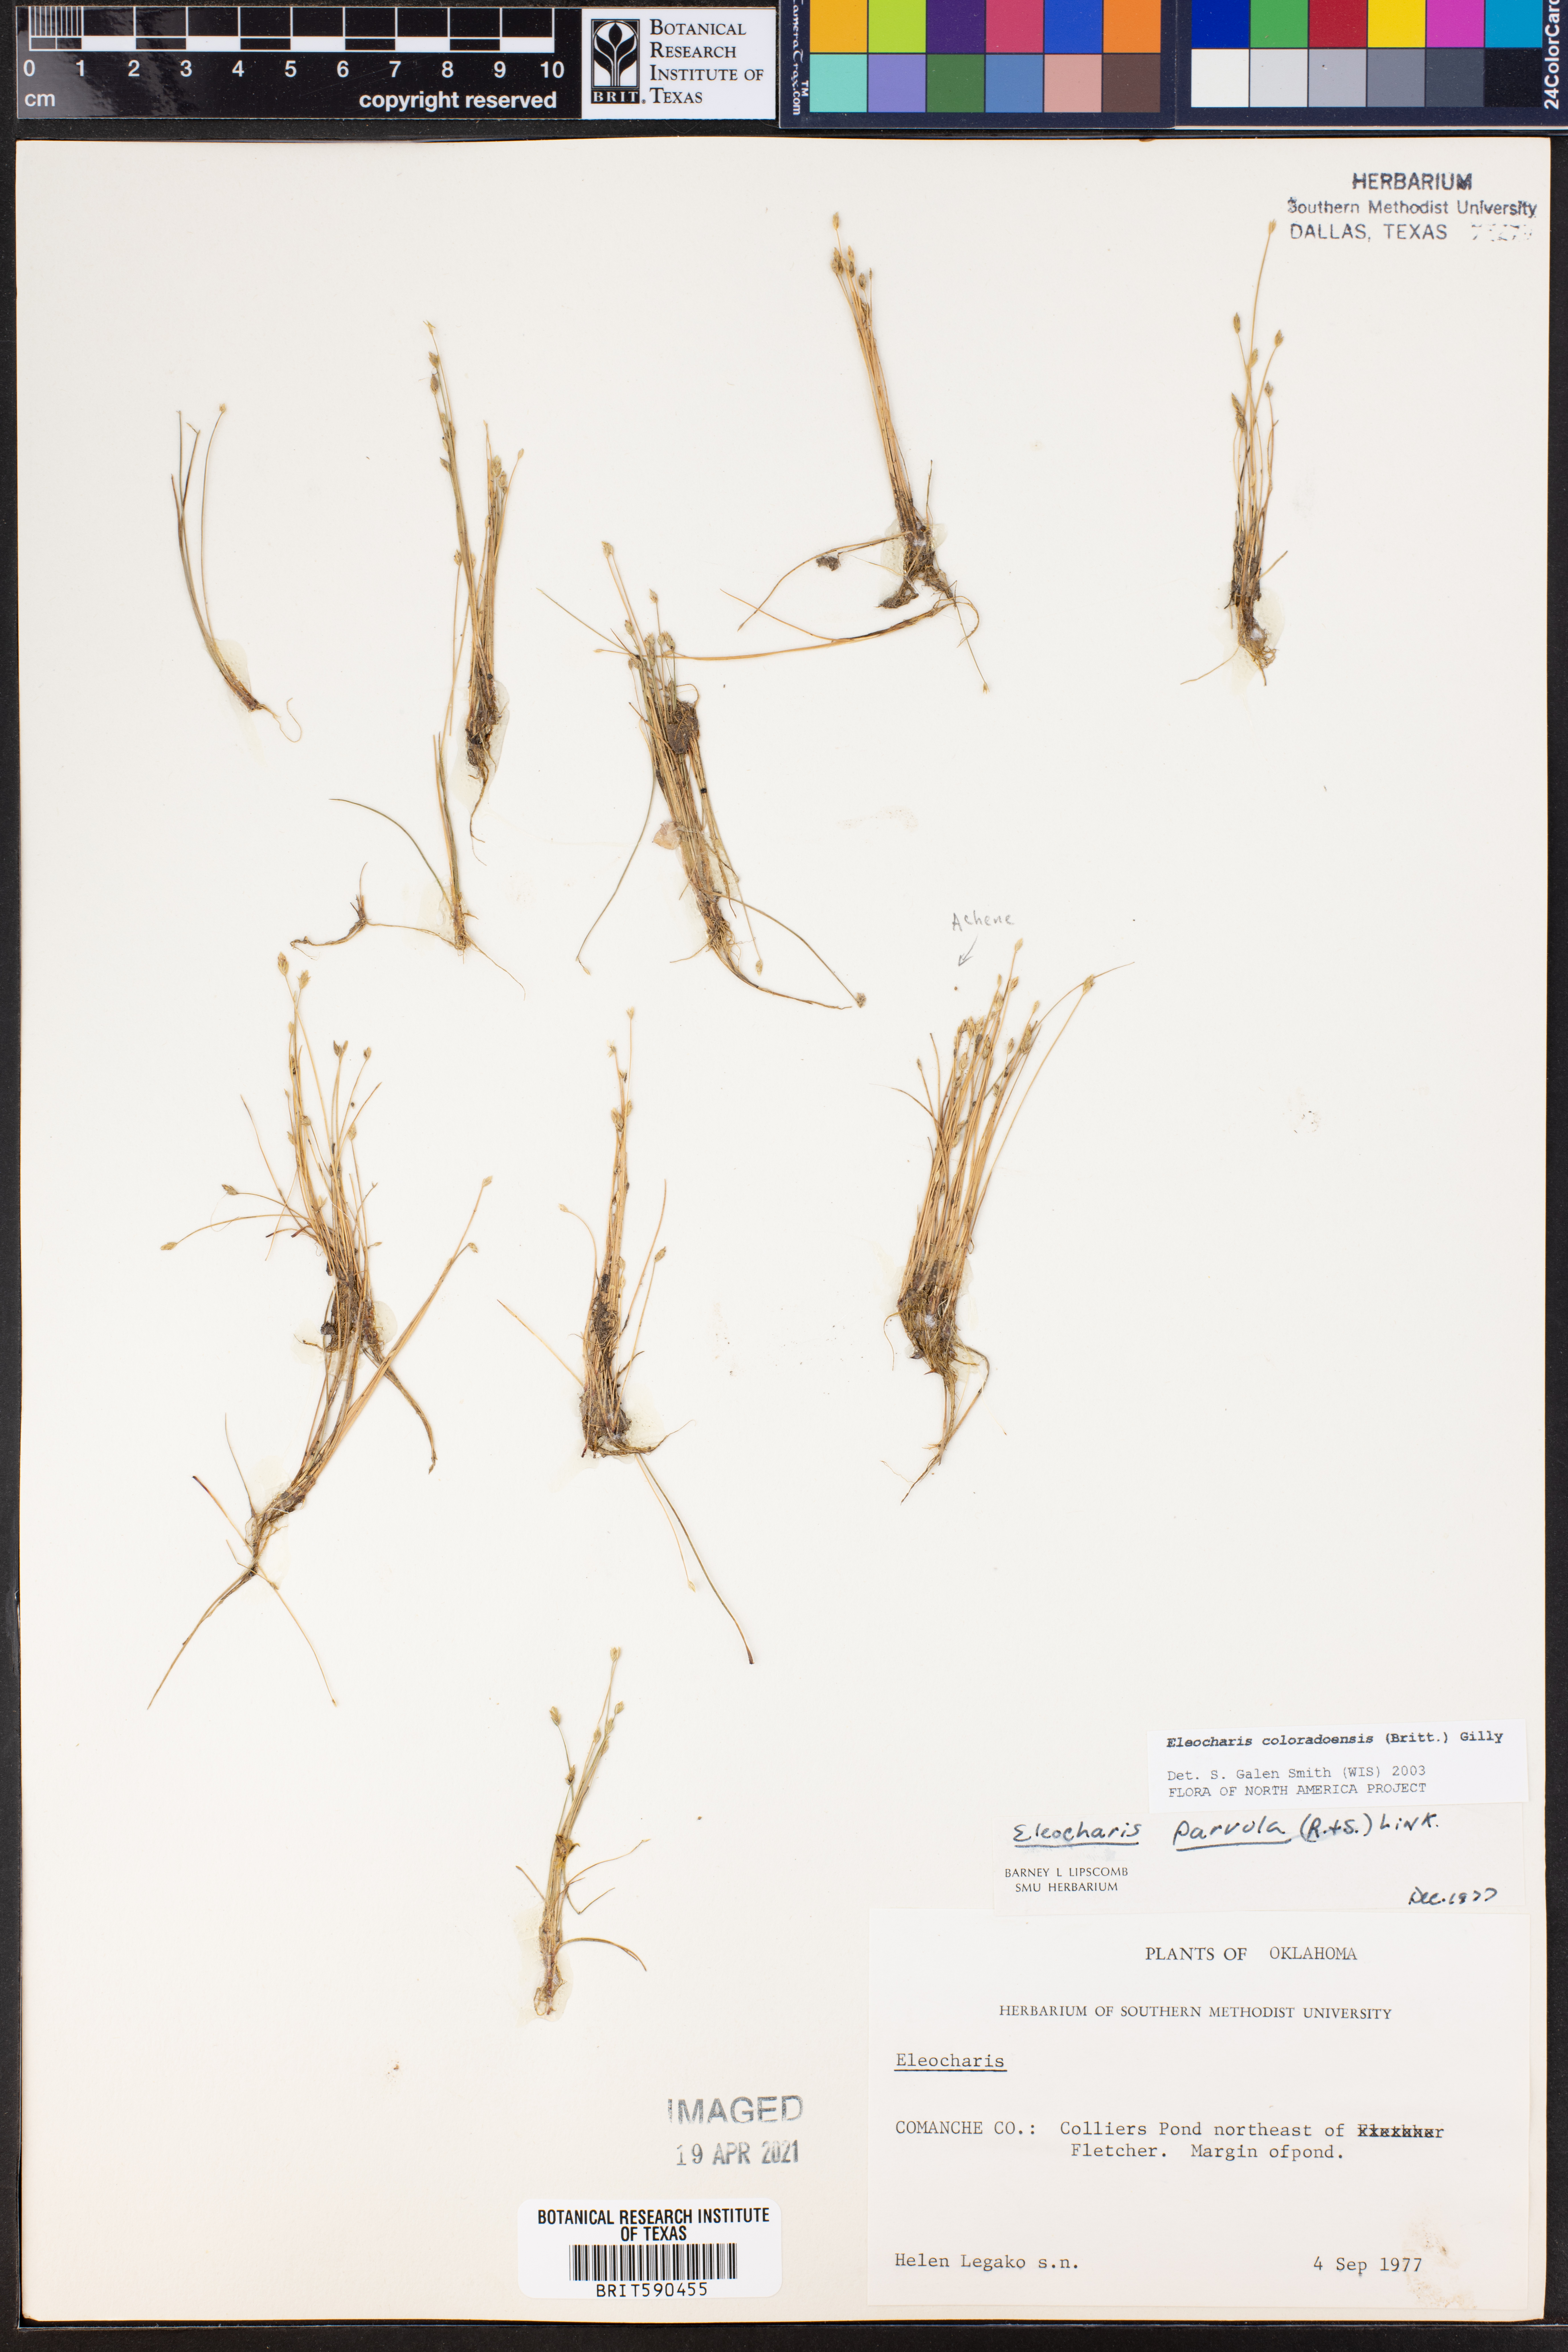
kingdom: Plantae
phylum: Tracheophyta
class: Liliopsida
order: Poales
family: Cyperaceae
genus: Eleocharis
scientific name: Eleocharis coloradoensis
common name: Colorado spikerush
